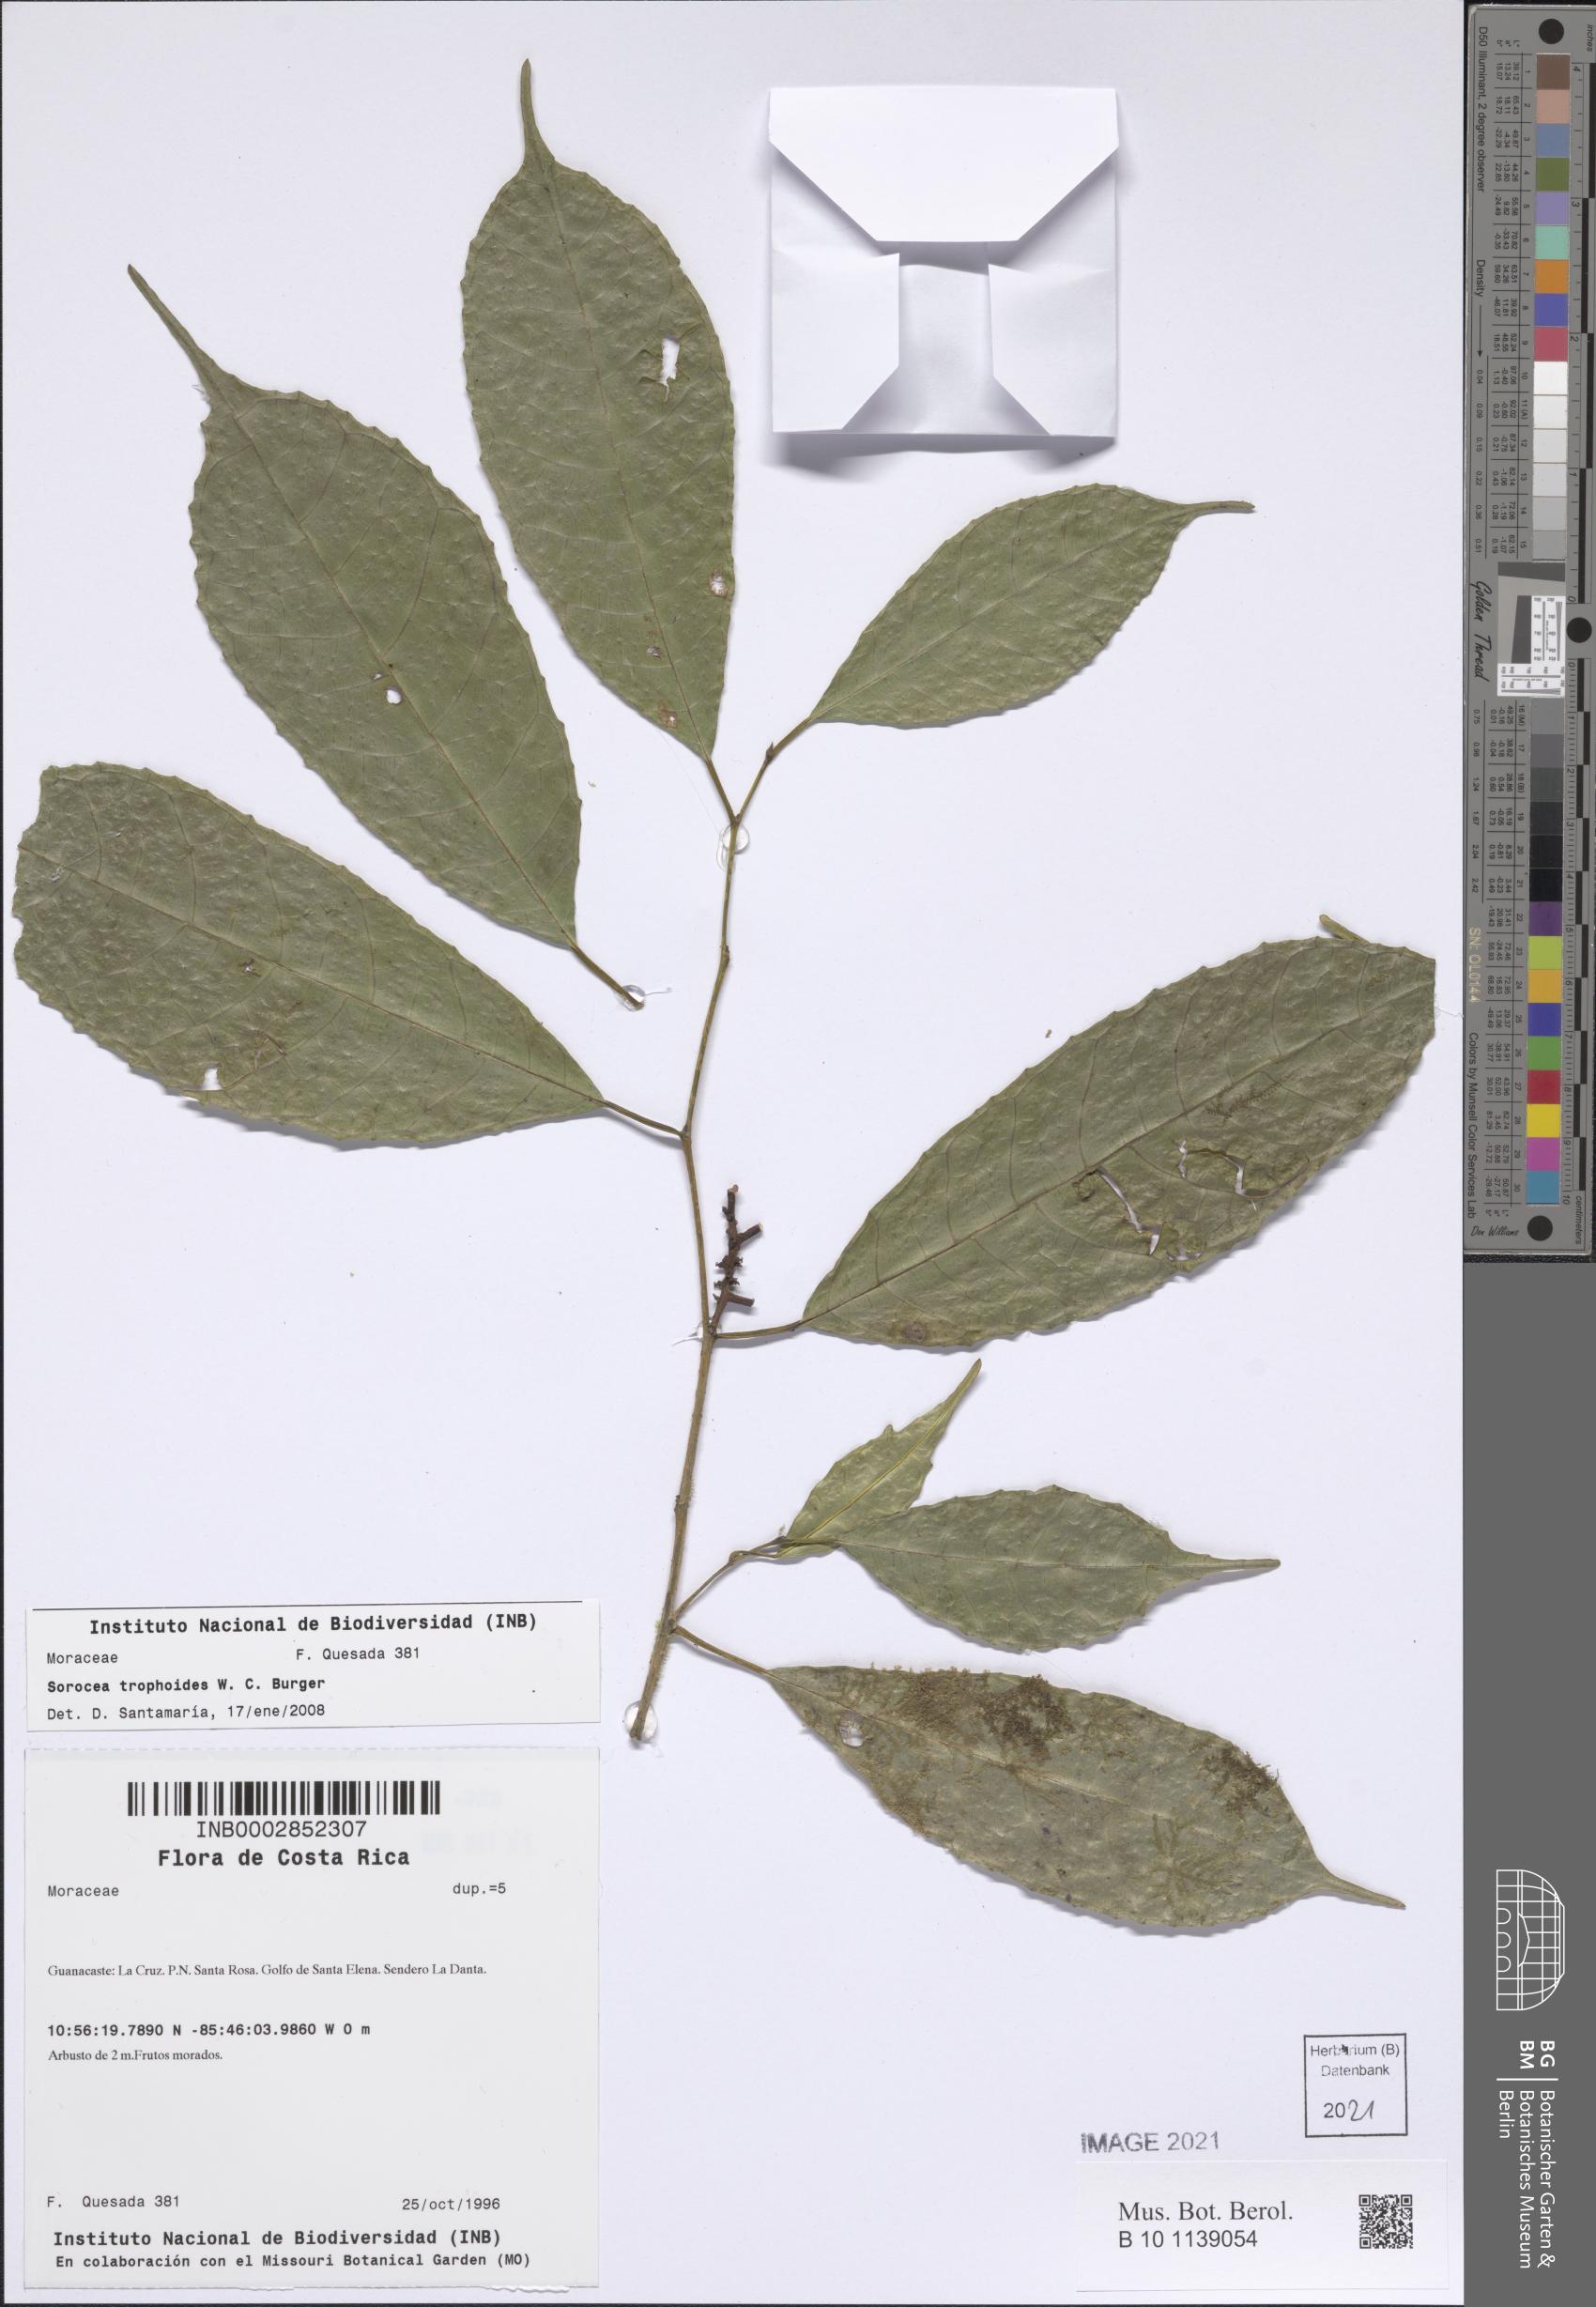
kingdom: Plantae
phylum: Tracheophyta
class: Magnoliopsida
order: Rosales
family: Moraceae
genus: Sorocea
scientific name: Sorocea trophoides
